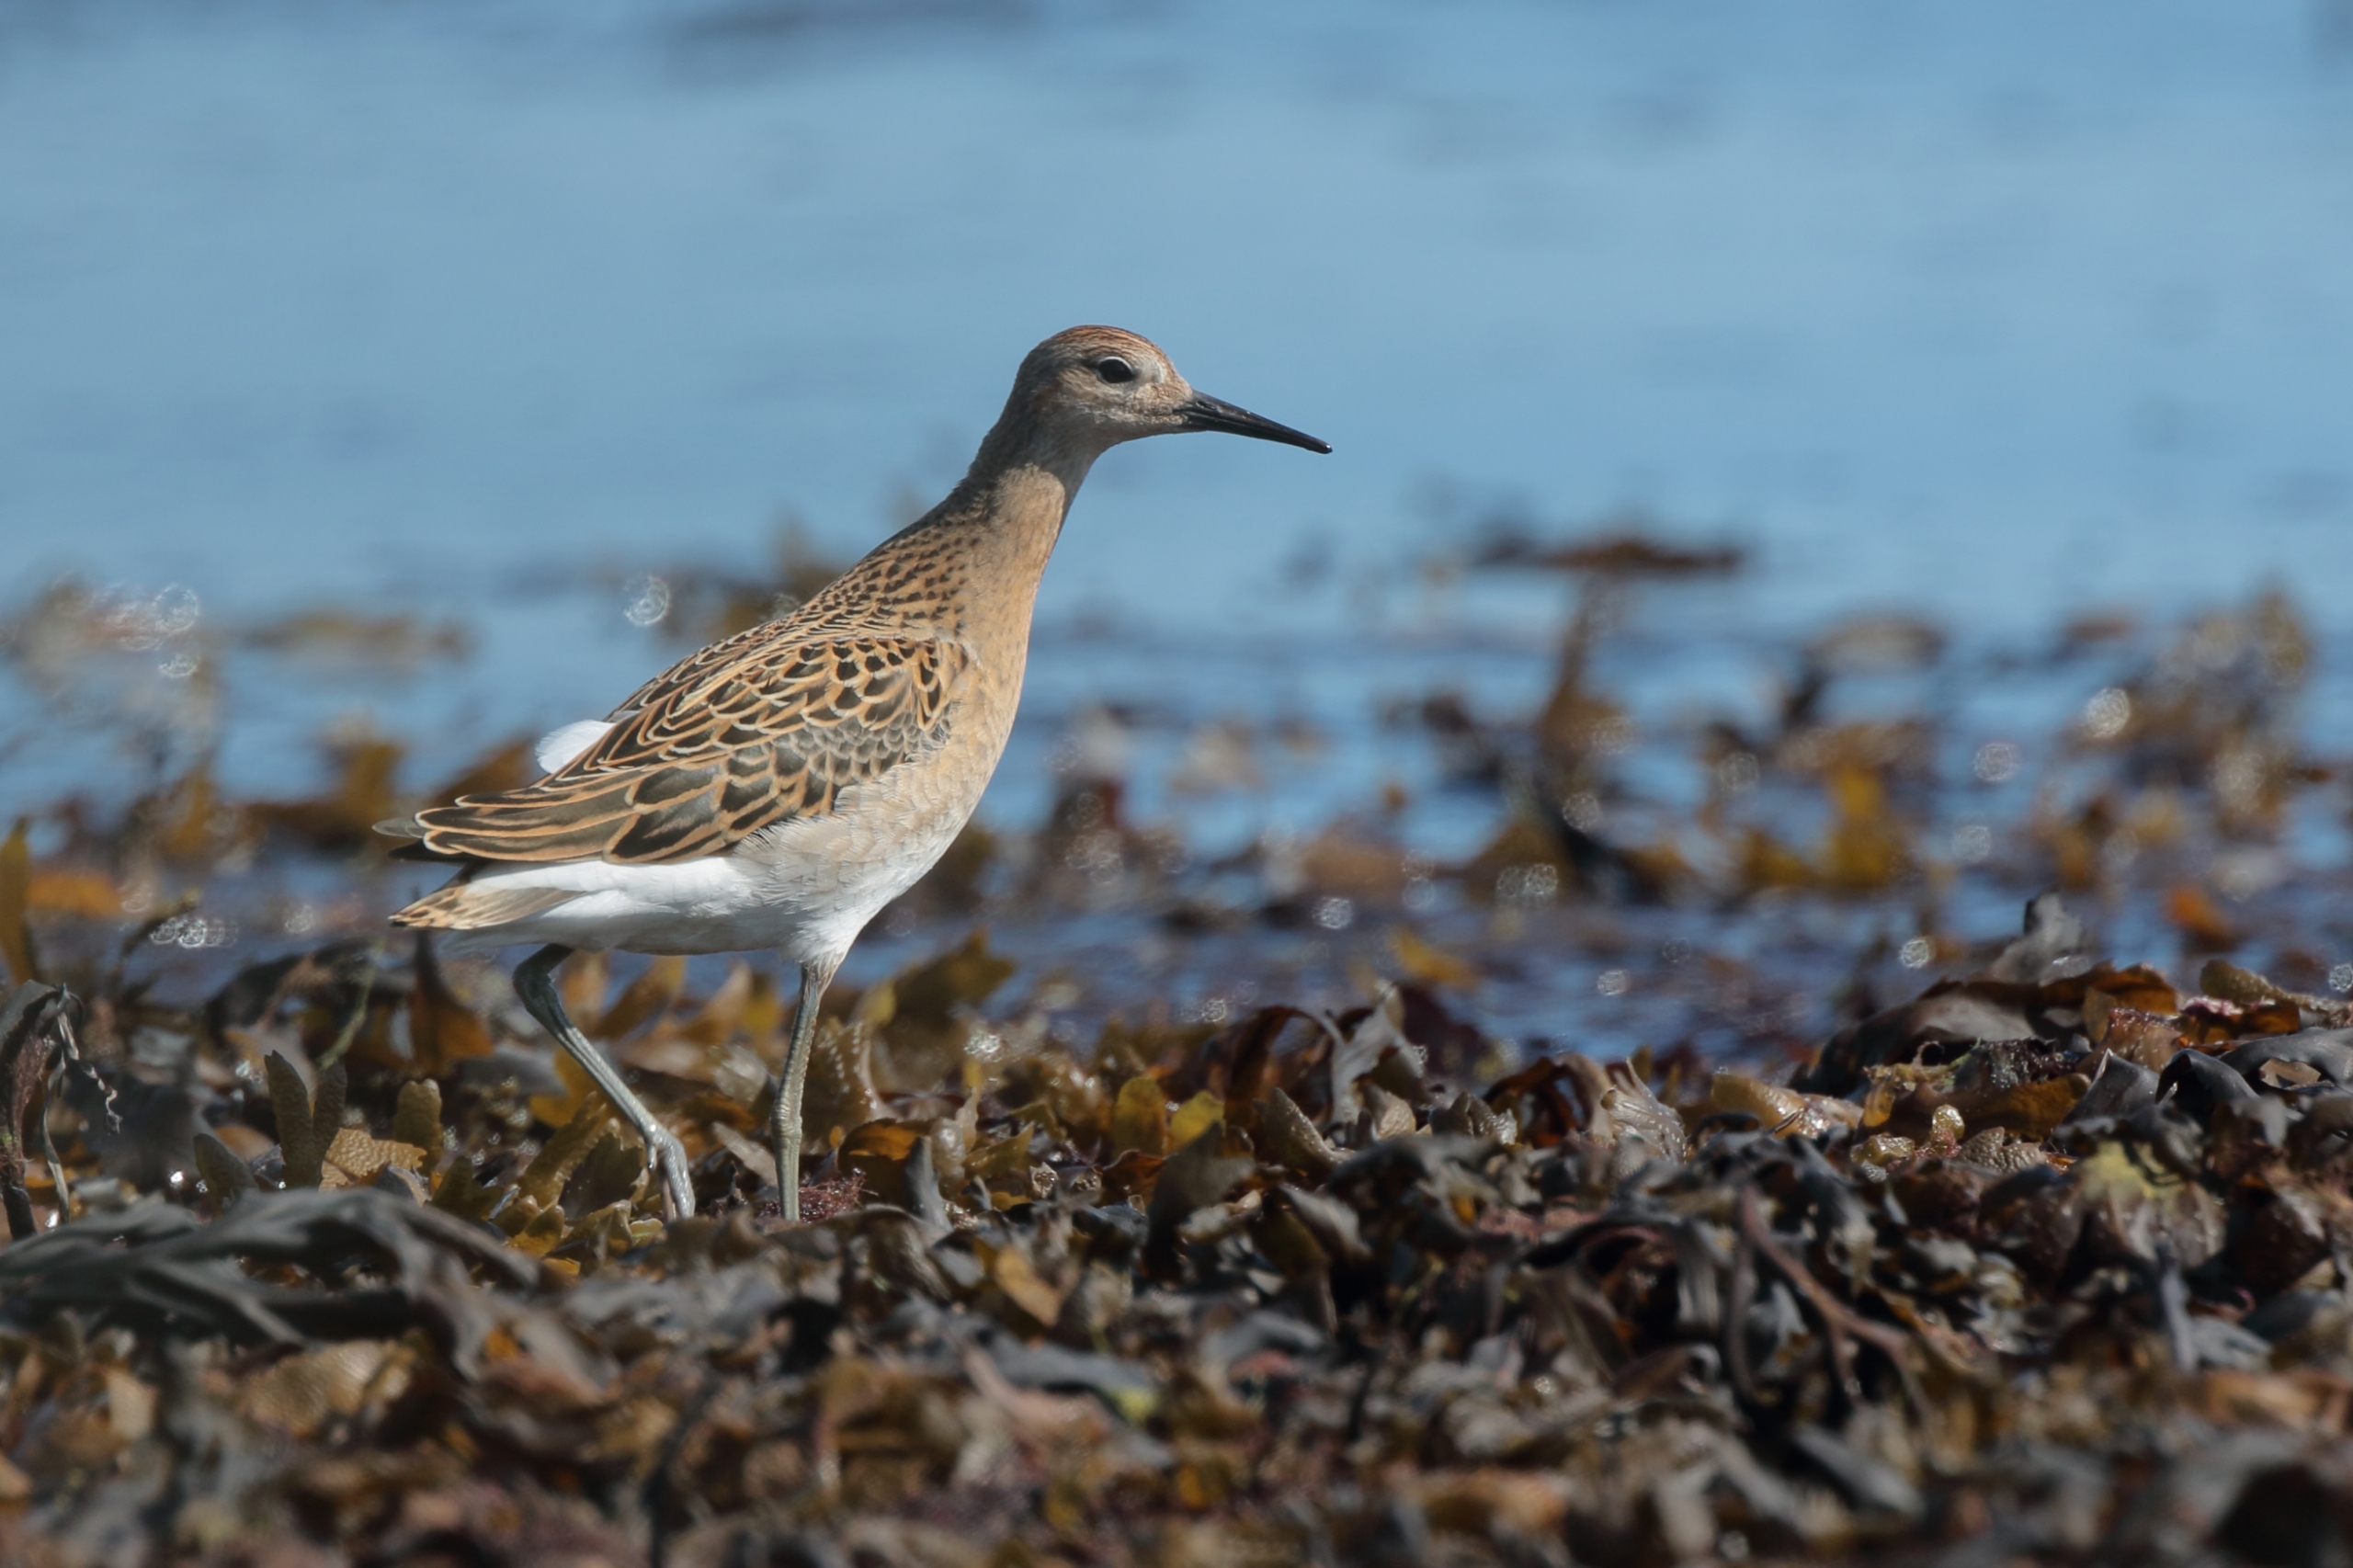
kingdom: Animalia
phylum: Chordata
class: Aves
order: Charadriiformes
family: Scolopacidae
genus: Calidris
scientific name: Calidris pugnax
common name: Brushane
